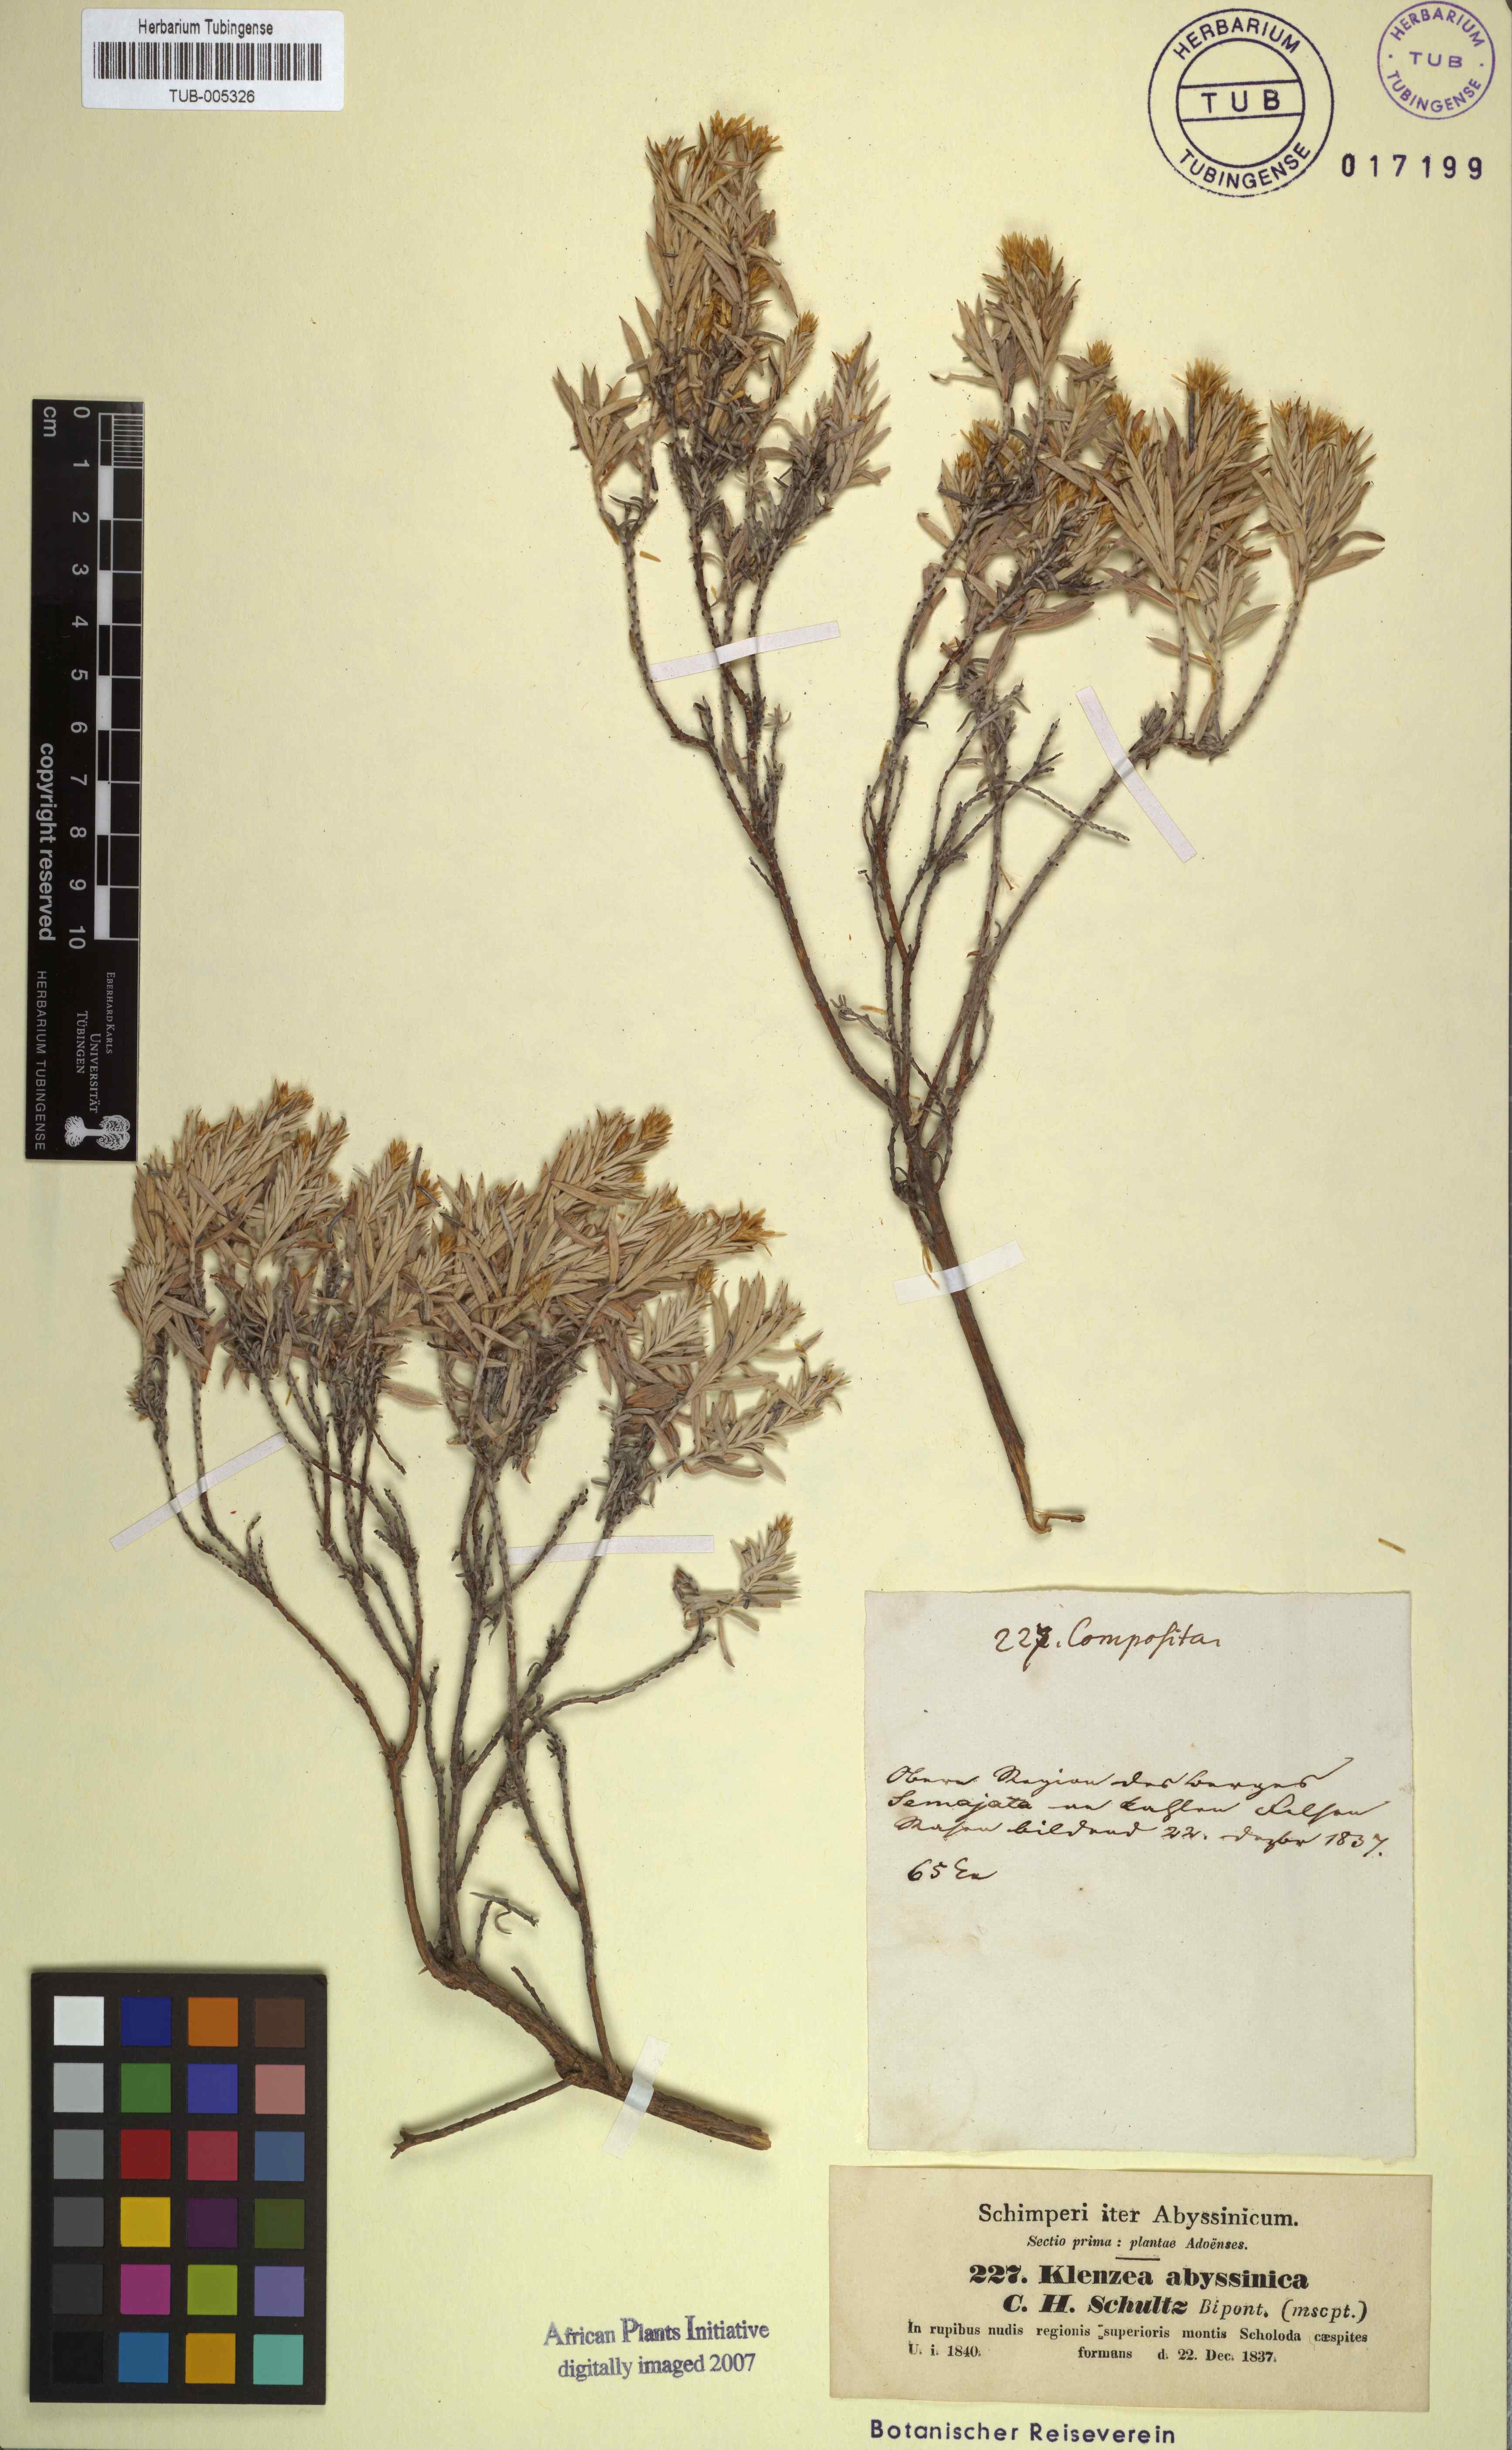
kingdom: Plantae
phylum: Tracheophyta
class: Magnoliopsida
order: Asterales
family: Asteraceae
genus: Oedera
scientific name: Oedera Antithrixia abyssinica
